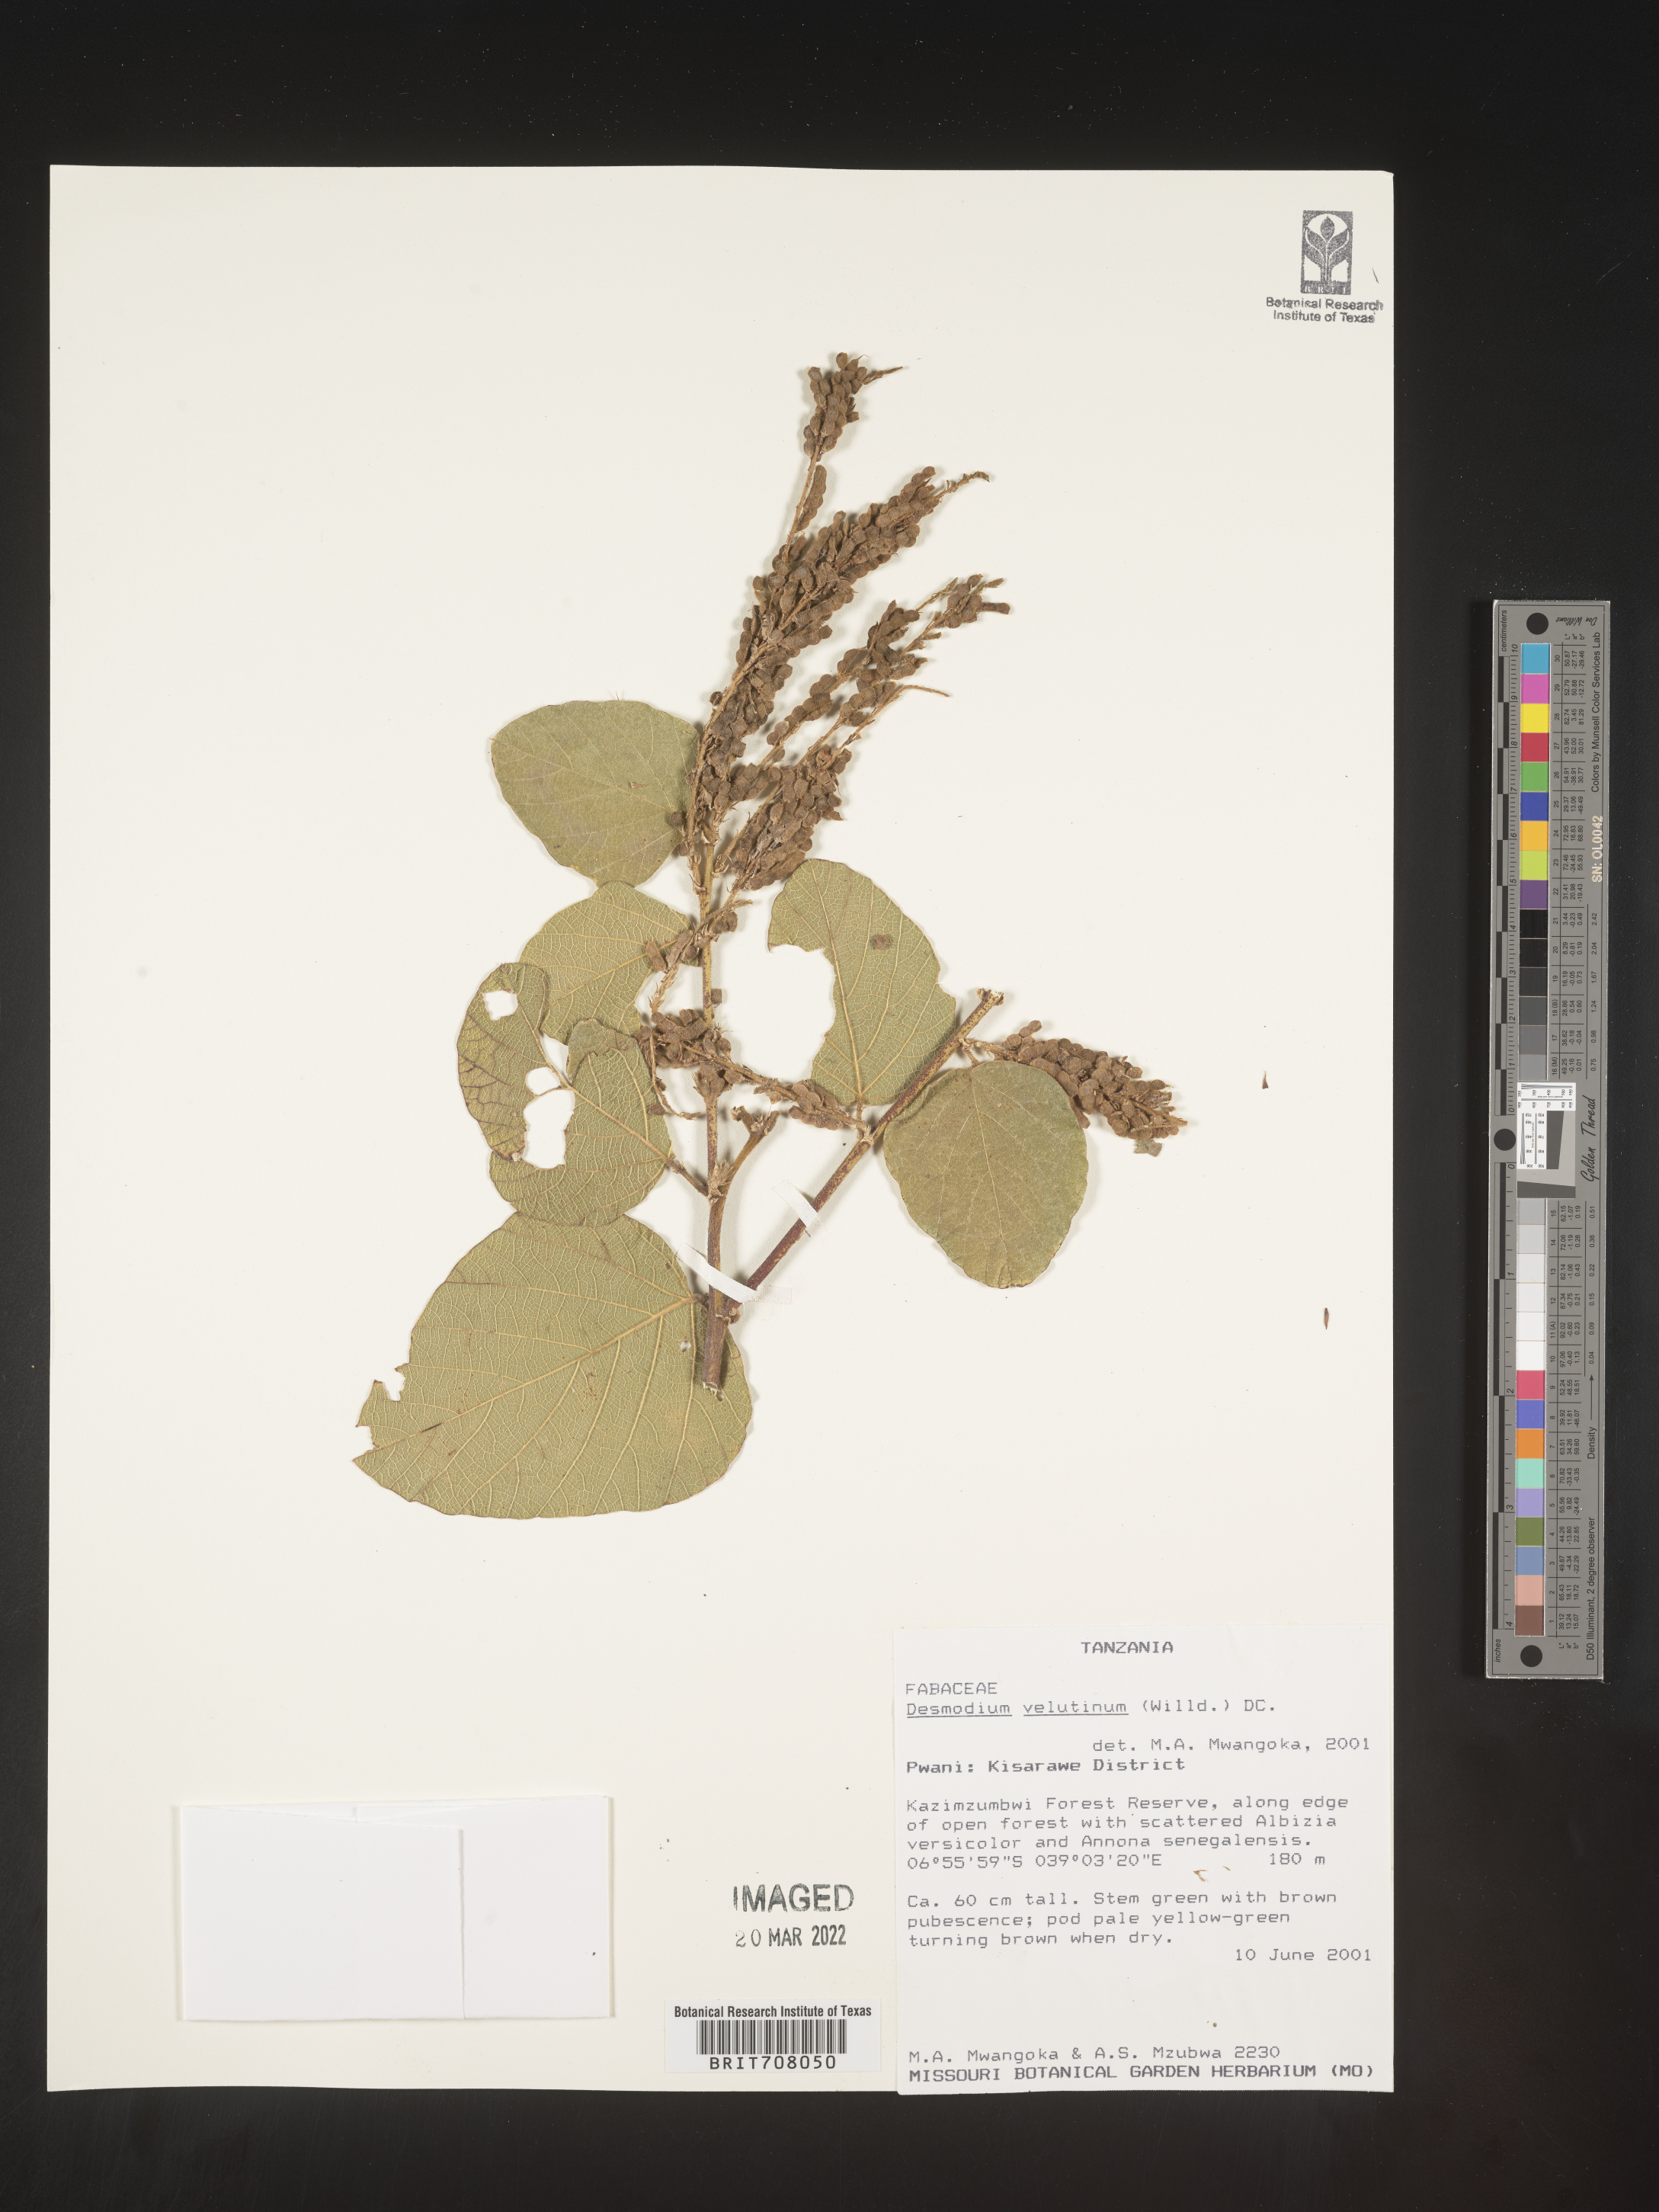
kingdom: Plantae
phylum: Tracheophyta
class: Magnoliopsida
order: Fabales
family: Fabaceae
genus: Desmodium
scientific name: Desmodium
